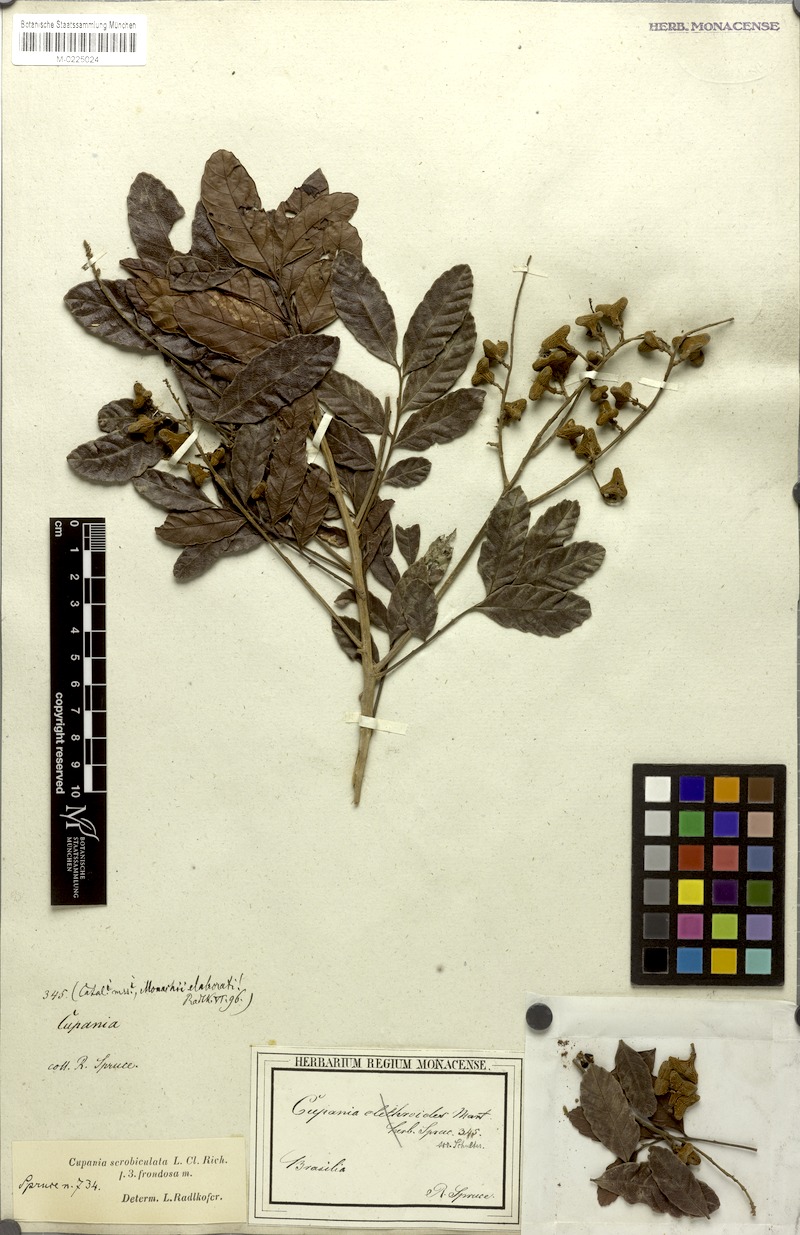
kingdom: Plantae
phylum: Tracheophyta
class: Magnoliopsida
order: Sapindales
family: Sapindaceae
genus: Cupania
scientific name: Cupania scrobiculata
